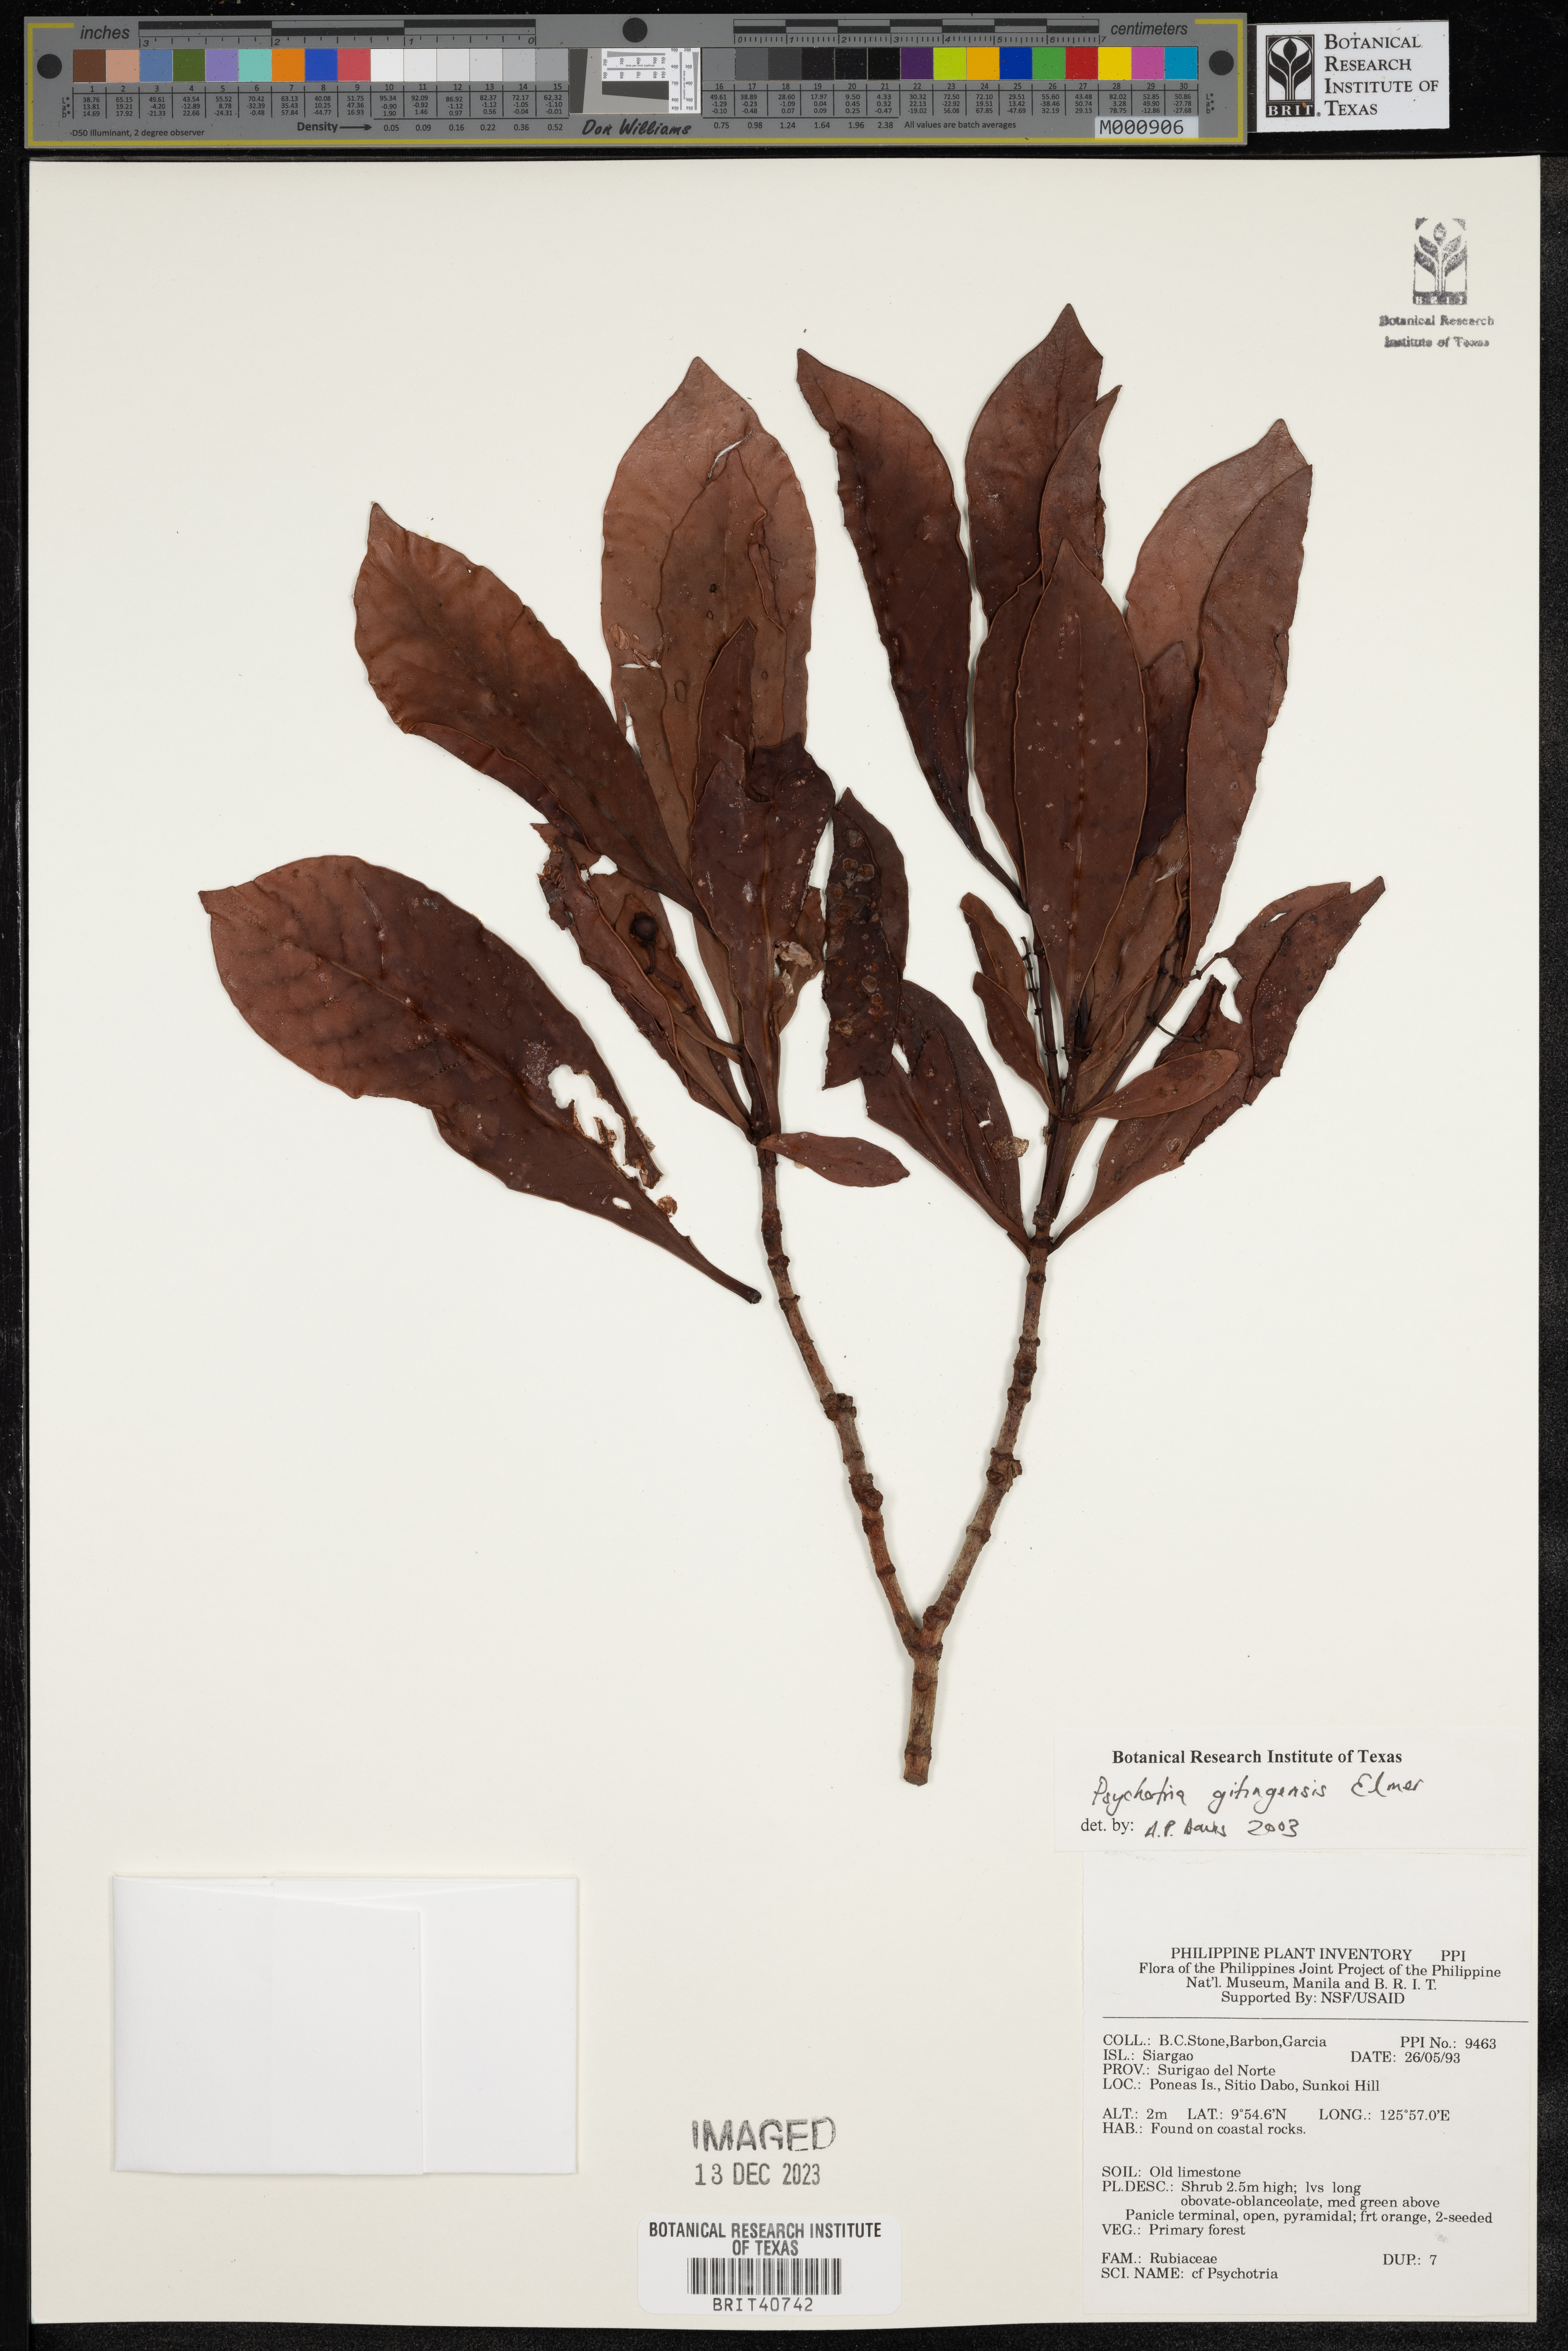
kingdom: Plantae
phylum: Tracheophyta
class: Magnoliopsida
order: Gentianales
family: Rubiaceae
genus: Psychotria
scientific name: Psychotria gitingensis
